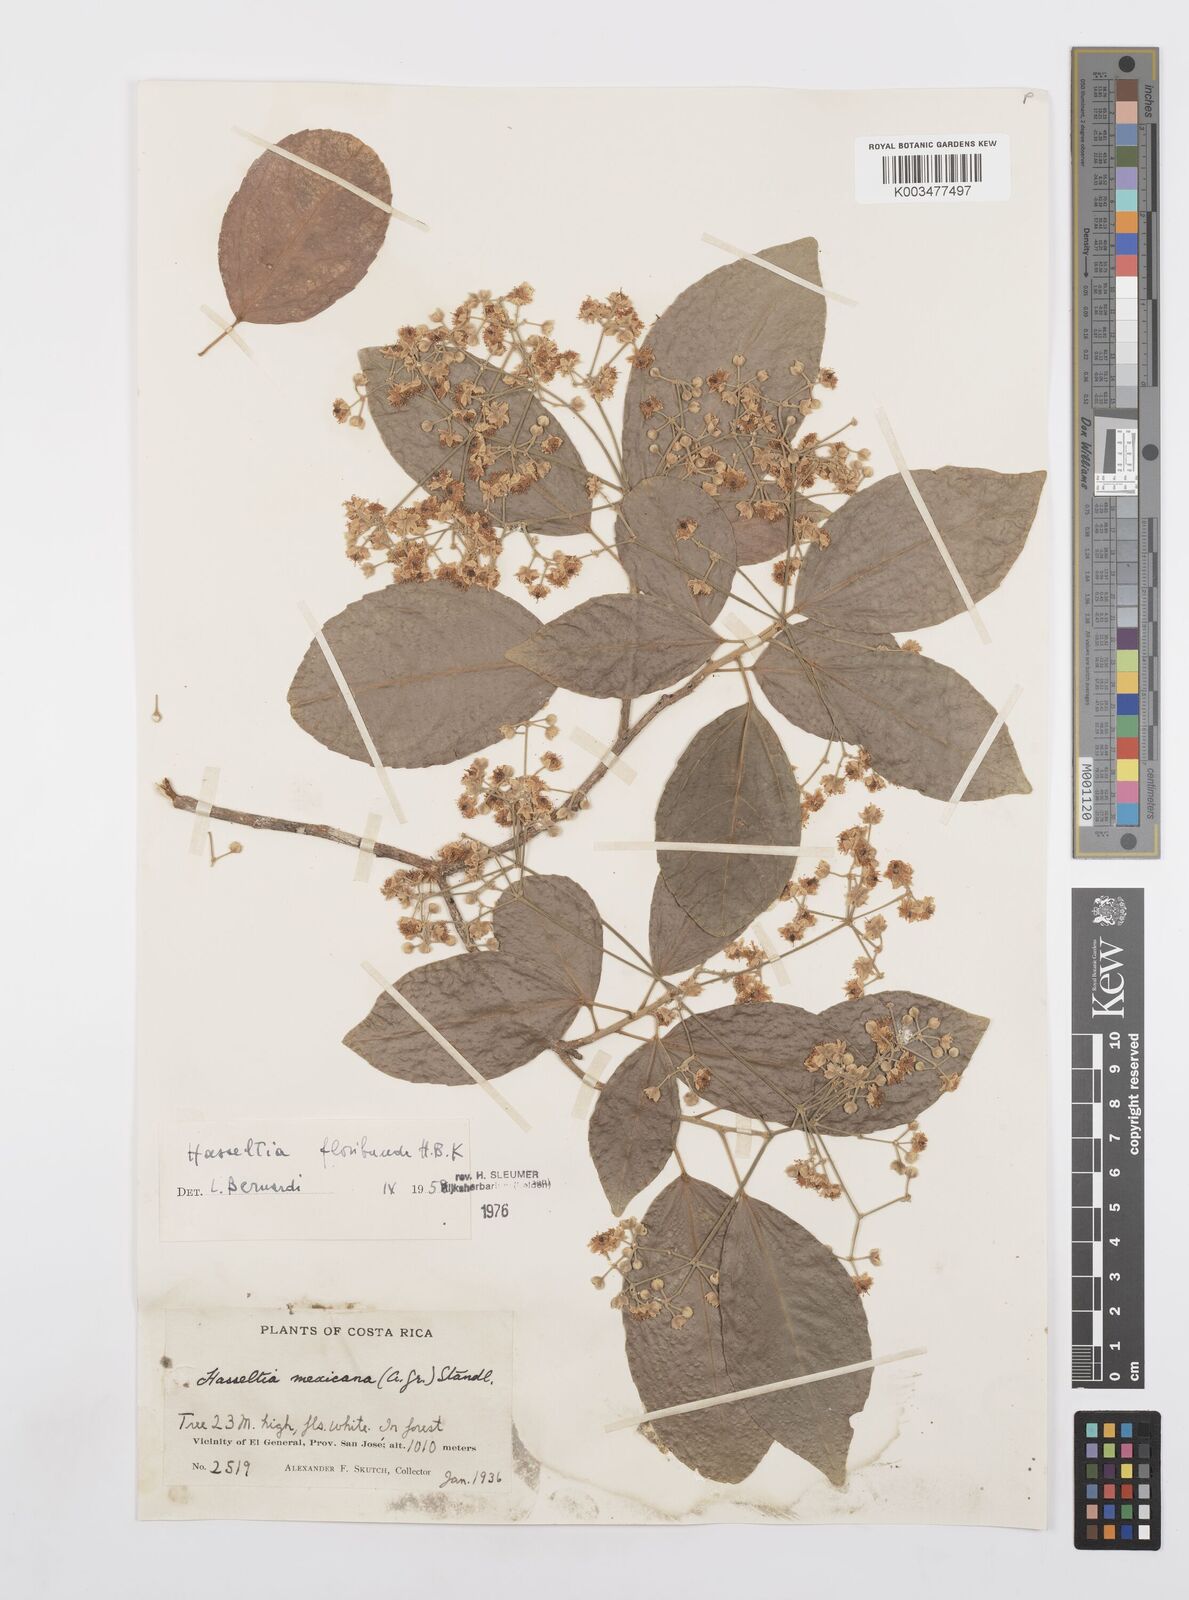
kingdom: Plantae
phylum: Tracheophyta
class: Magnoliopsida
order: Malpighiales
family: Salicaceae
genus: Hasseltia
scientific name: Hasseltia floribunda
